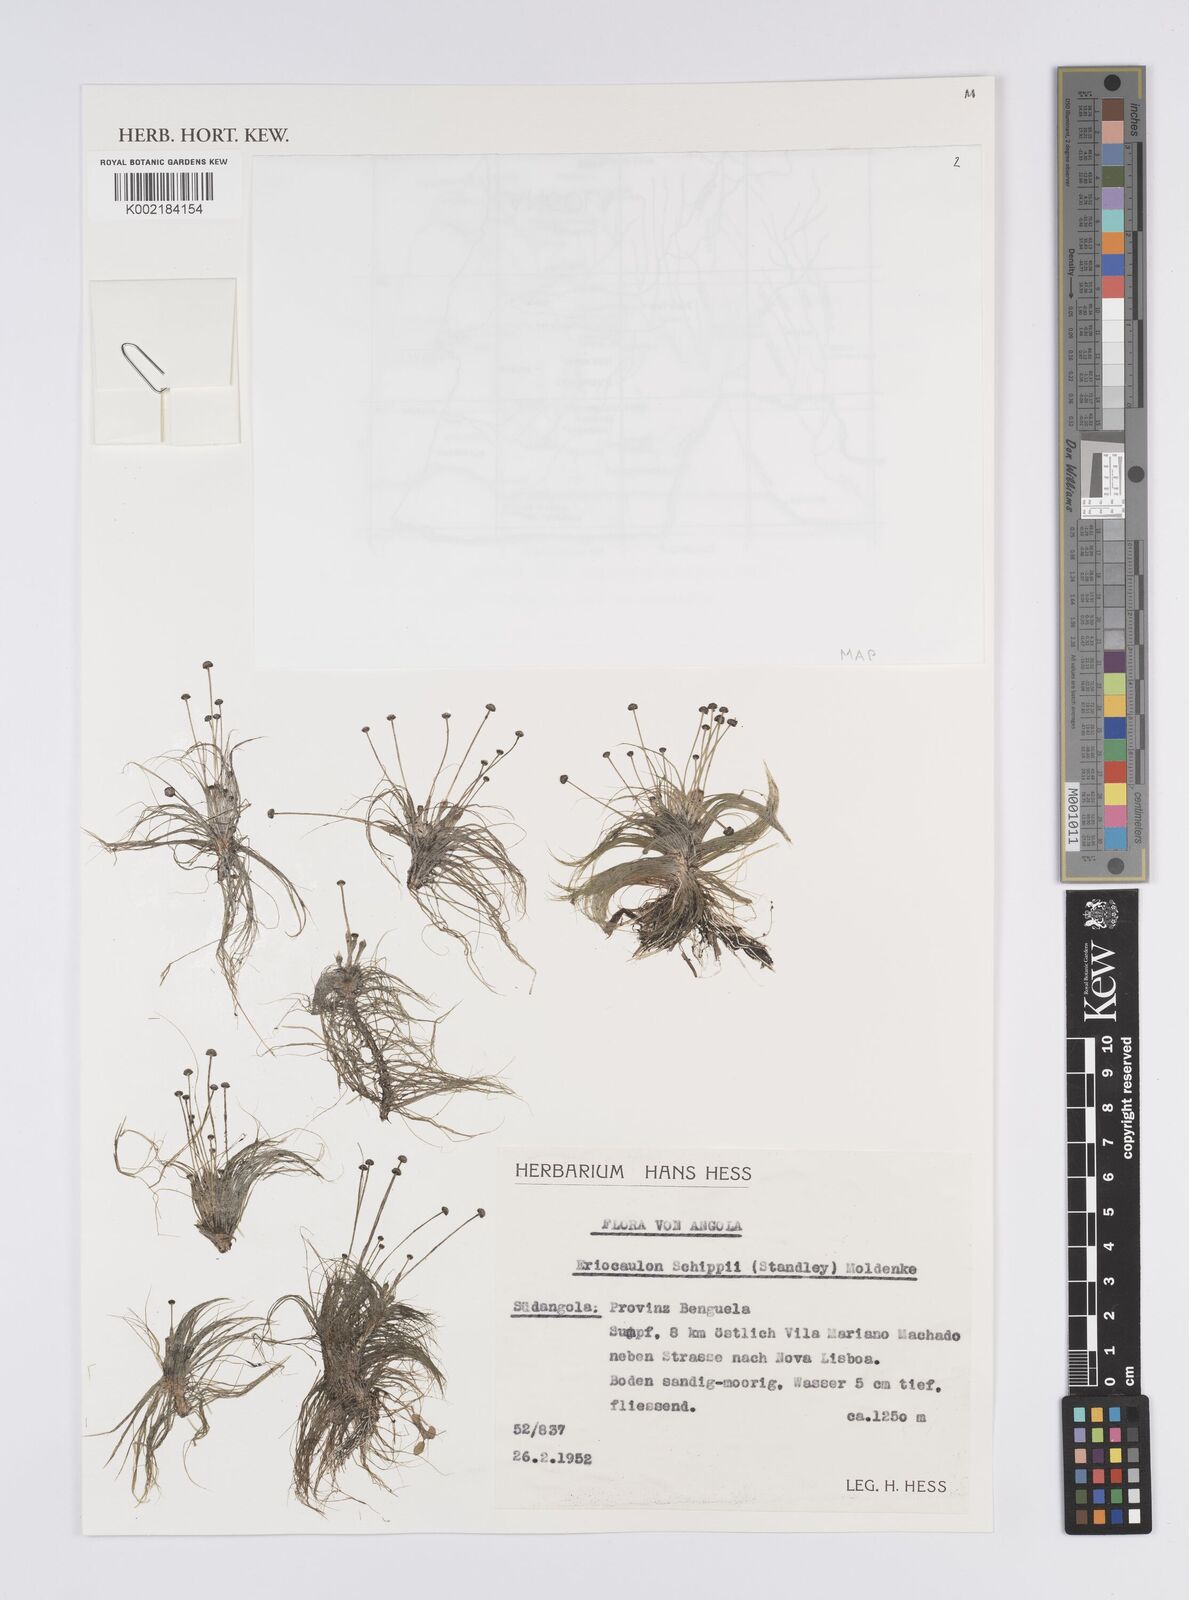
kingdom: Plantae
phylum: Tracheophyta
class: Liliopsida
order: Poales
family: Eriocaulaceae
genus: Eriocaulon
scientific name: Eriocaulon setaceum
